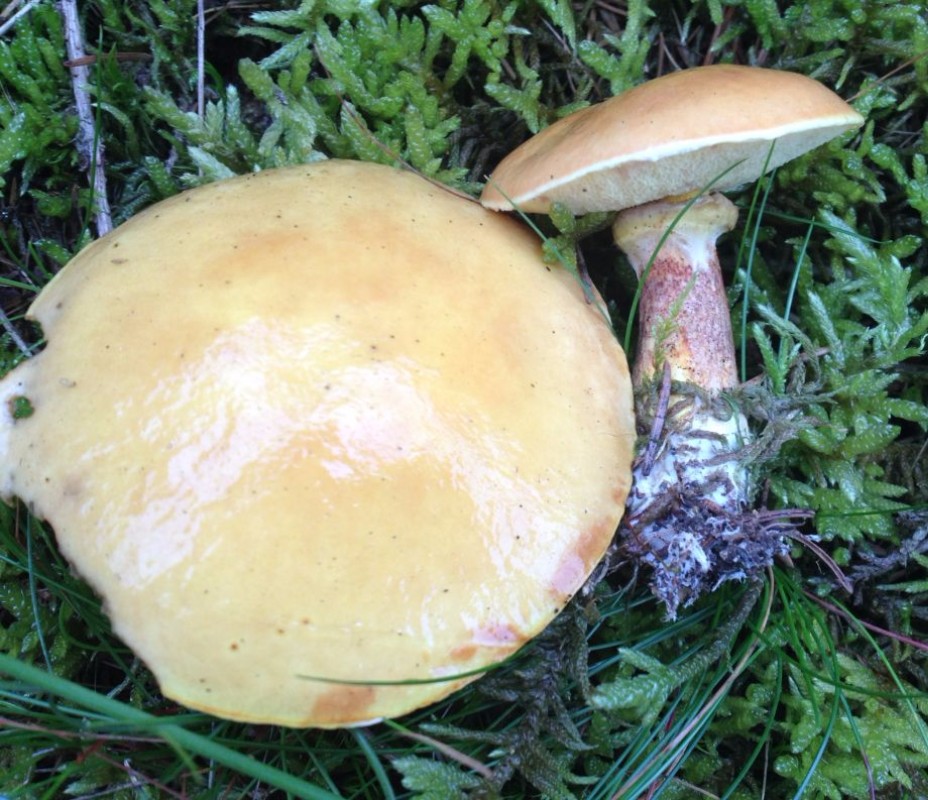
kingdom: Fungi
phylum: Basidiomycota
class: Agaricomycetes
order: Boletales
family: Suillaceae
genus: Suillus
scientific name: Suillus grevillei
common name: lærke-slimrørhat
